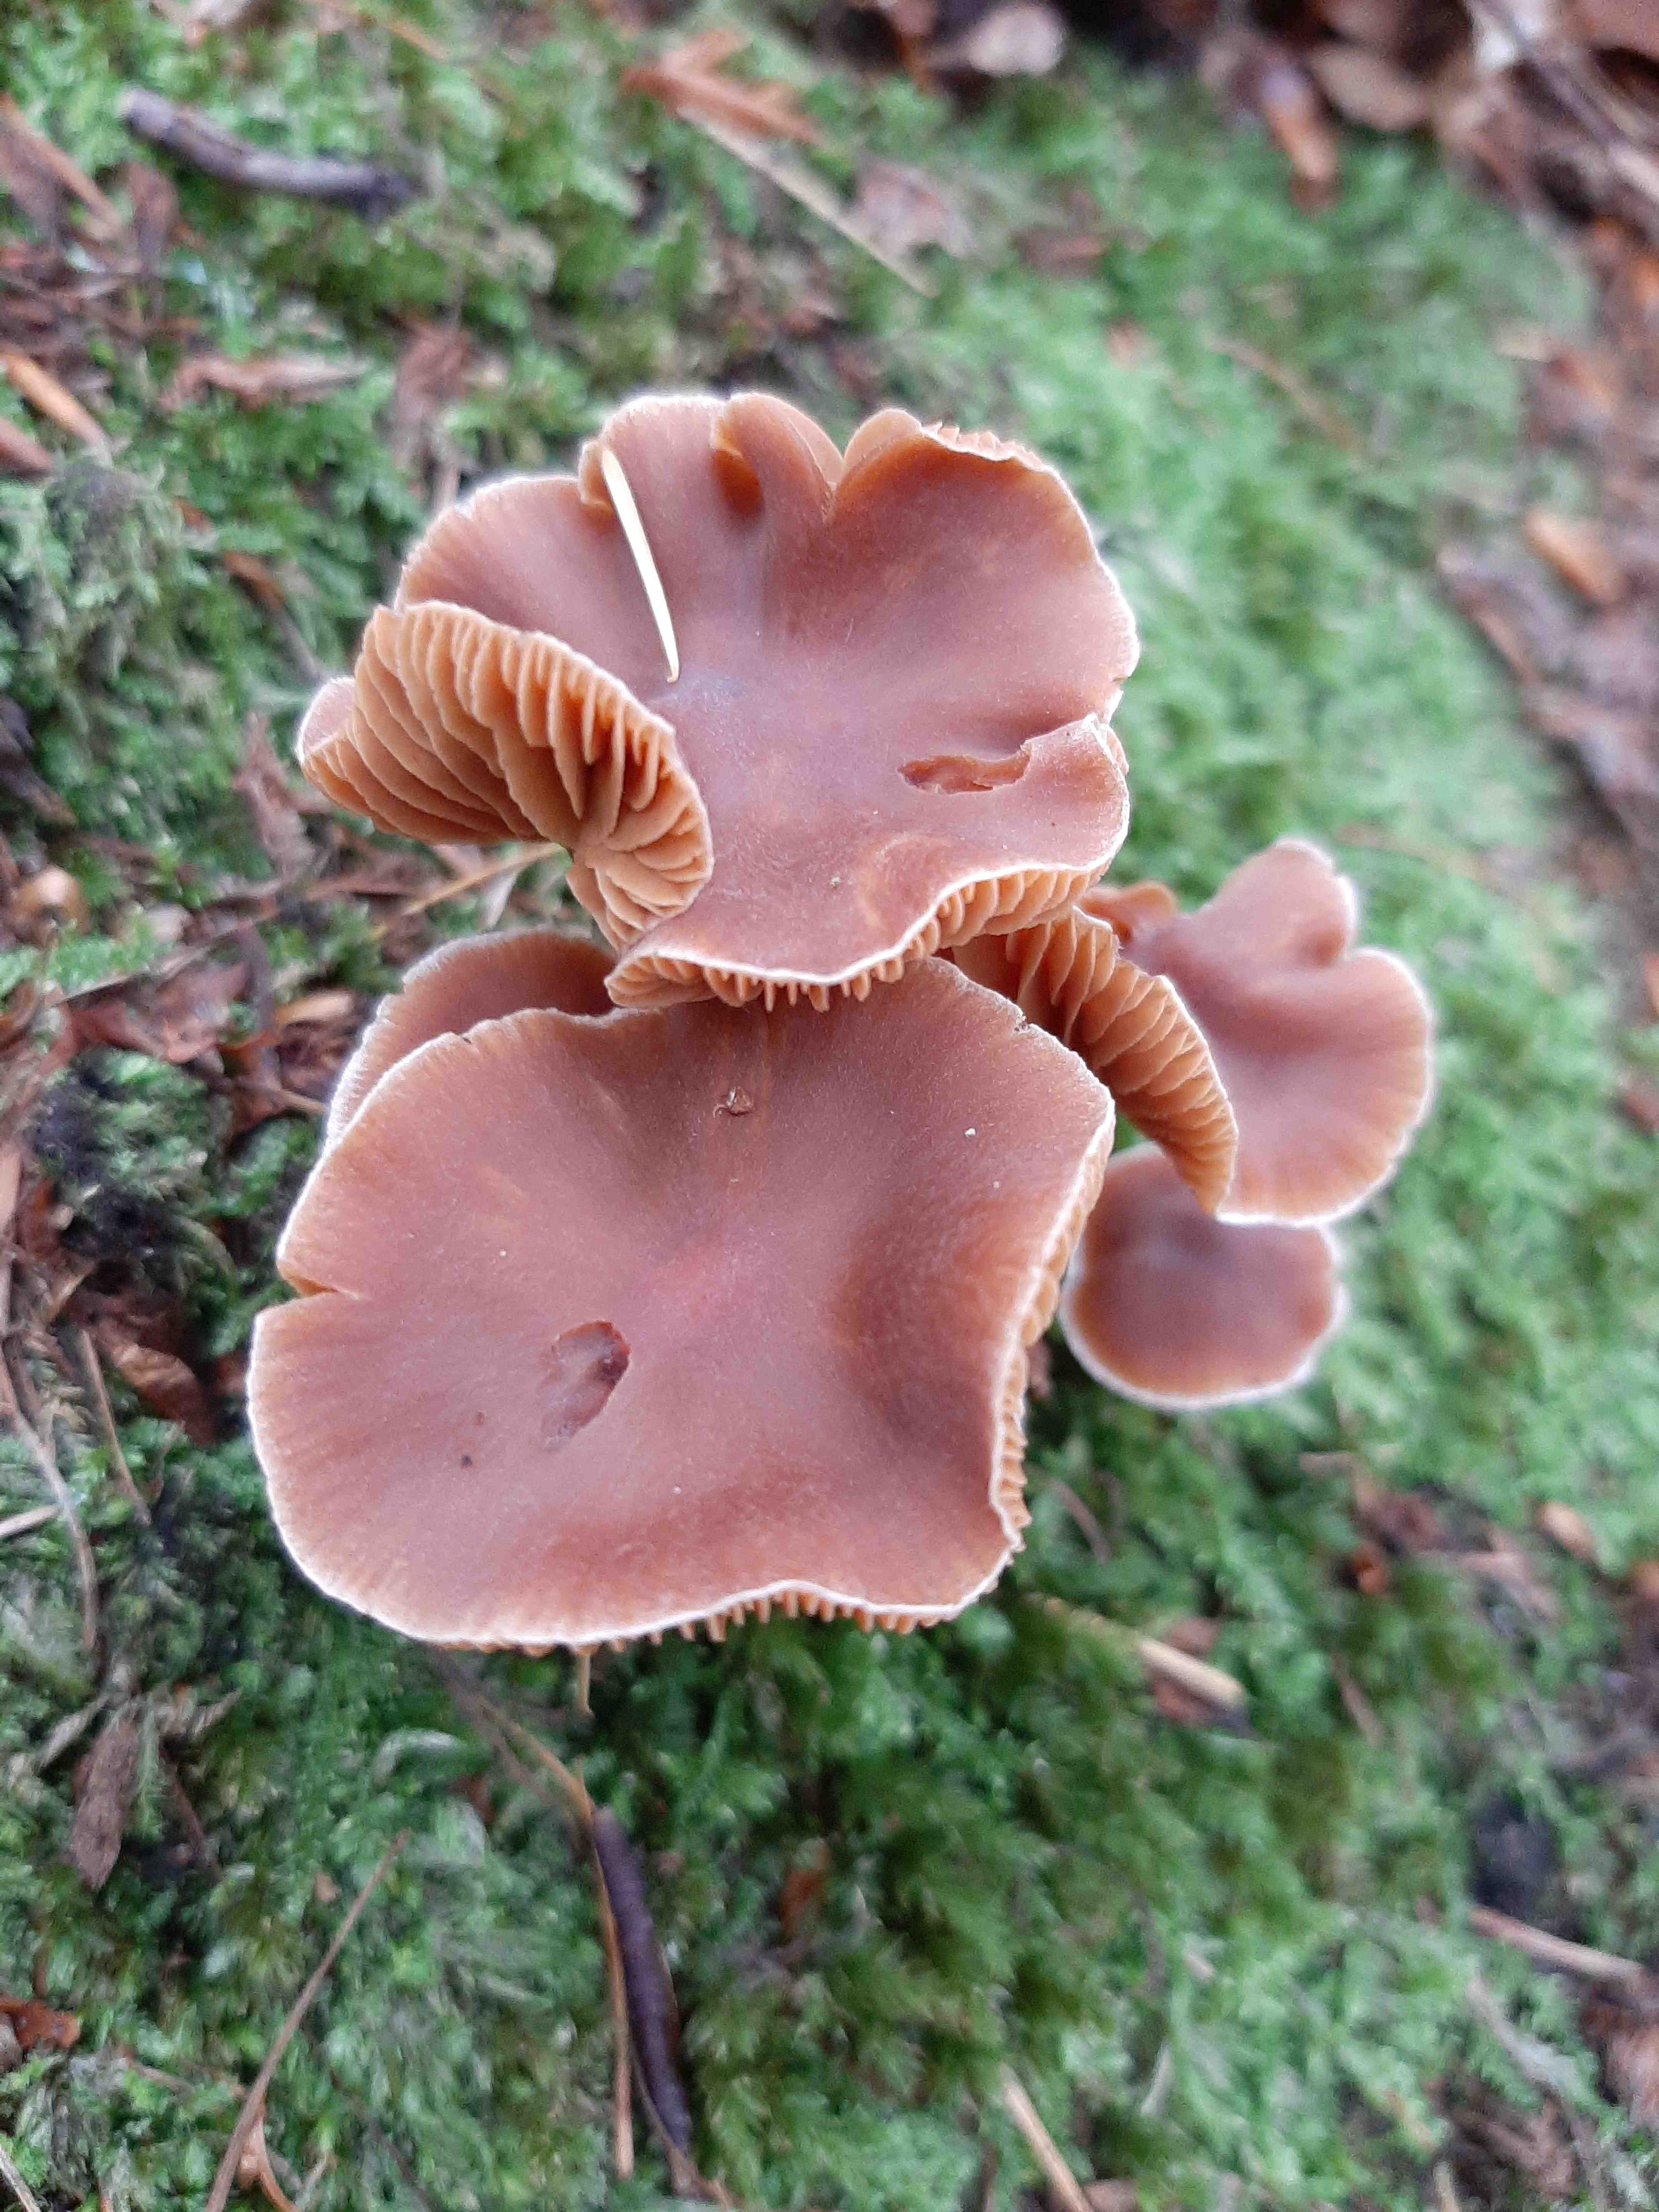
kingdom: Fungi
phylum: Basidiomycota
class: Agaricomycetes
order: Agaricales
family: Cortinariaceae
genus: Cortinarius
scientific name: Cortinarius
